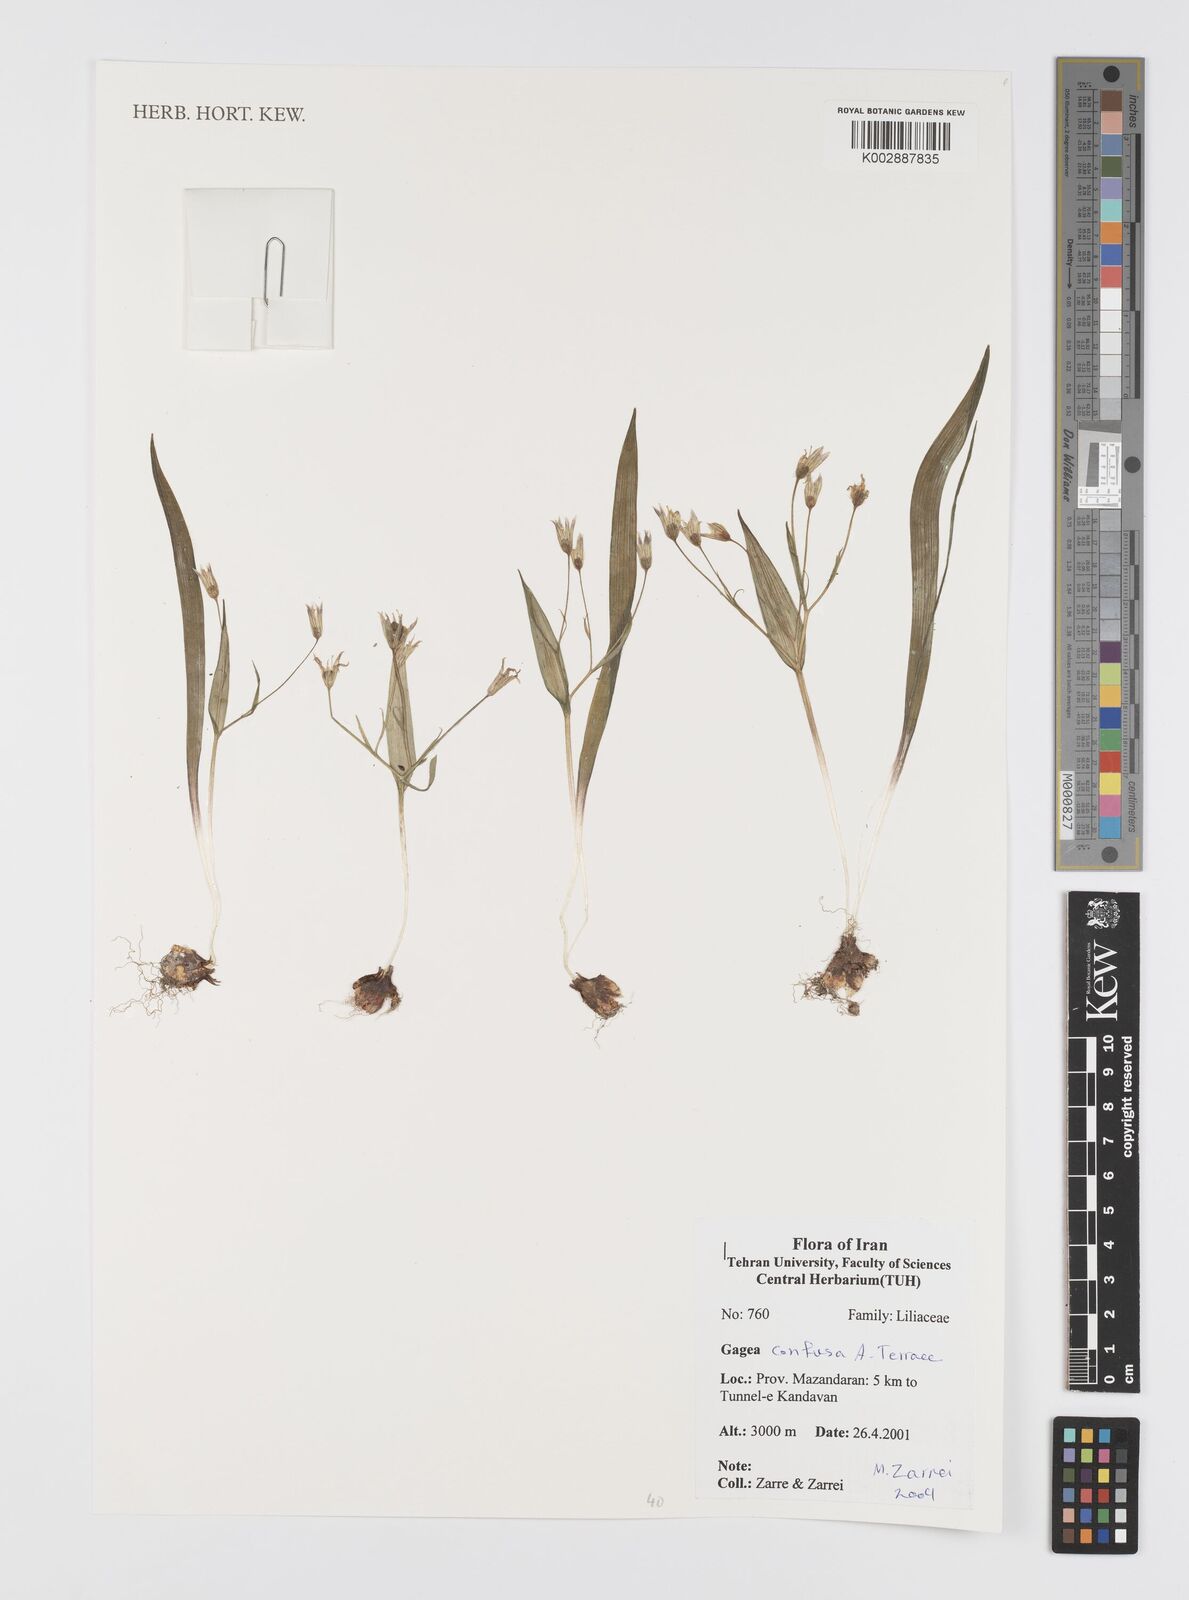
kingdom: Plantae
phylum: Tracheophyta
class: Liliopsida
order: Liliales
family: Liliaceae
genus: Gagea
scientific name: Gagea confusa
